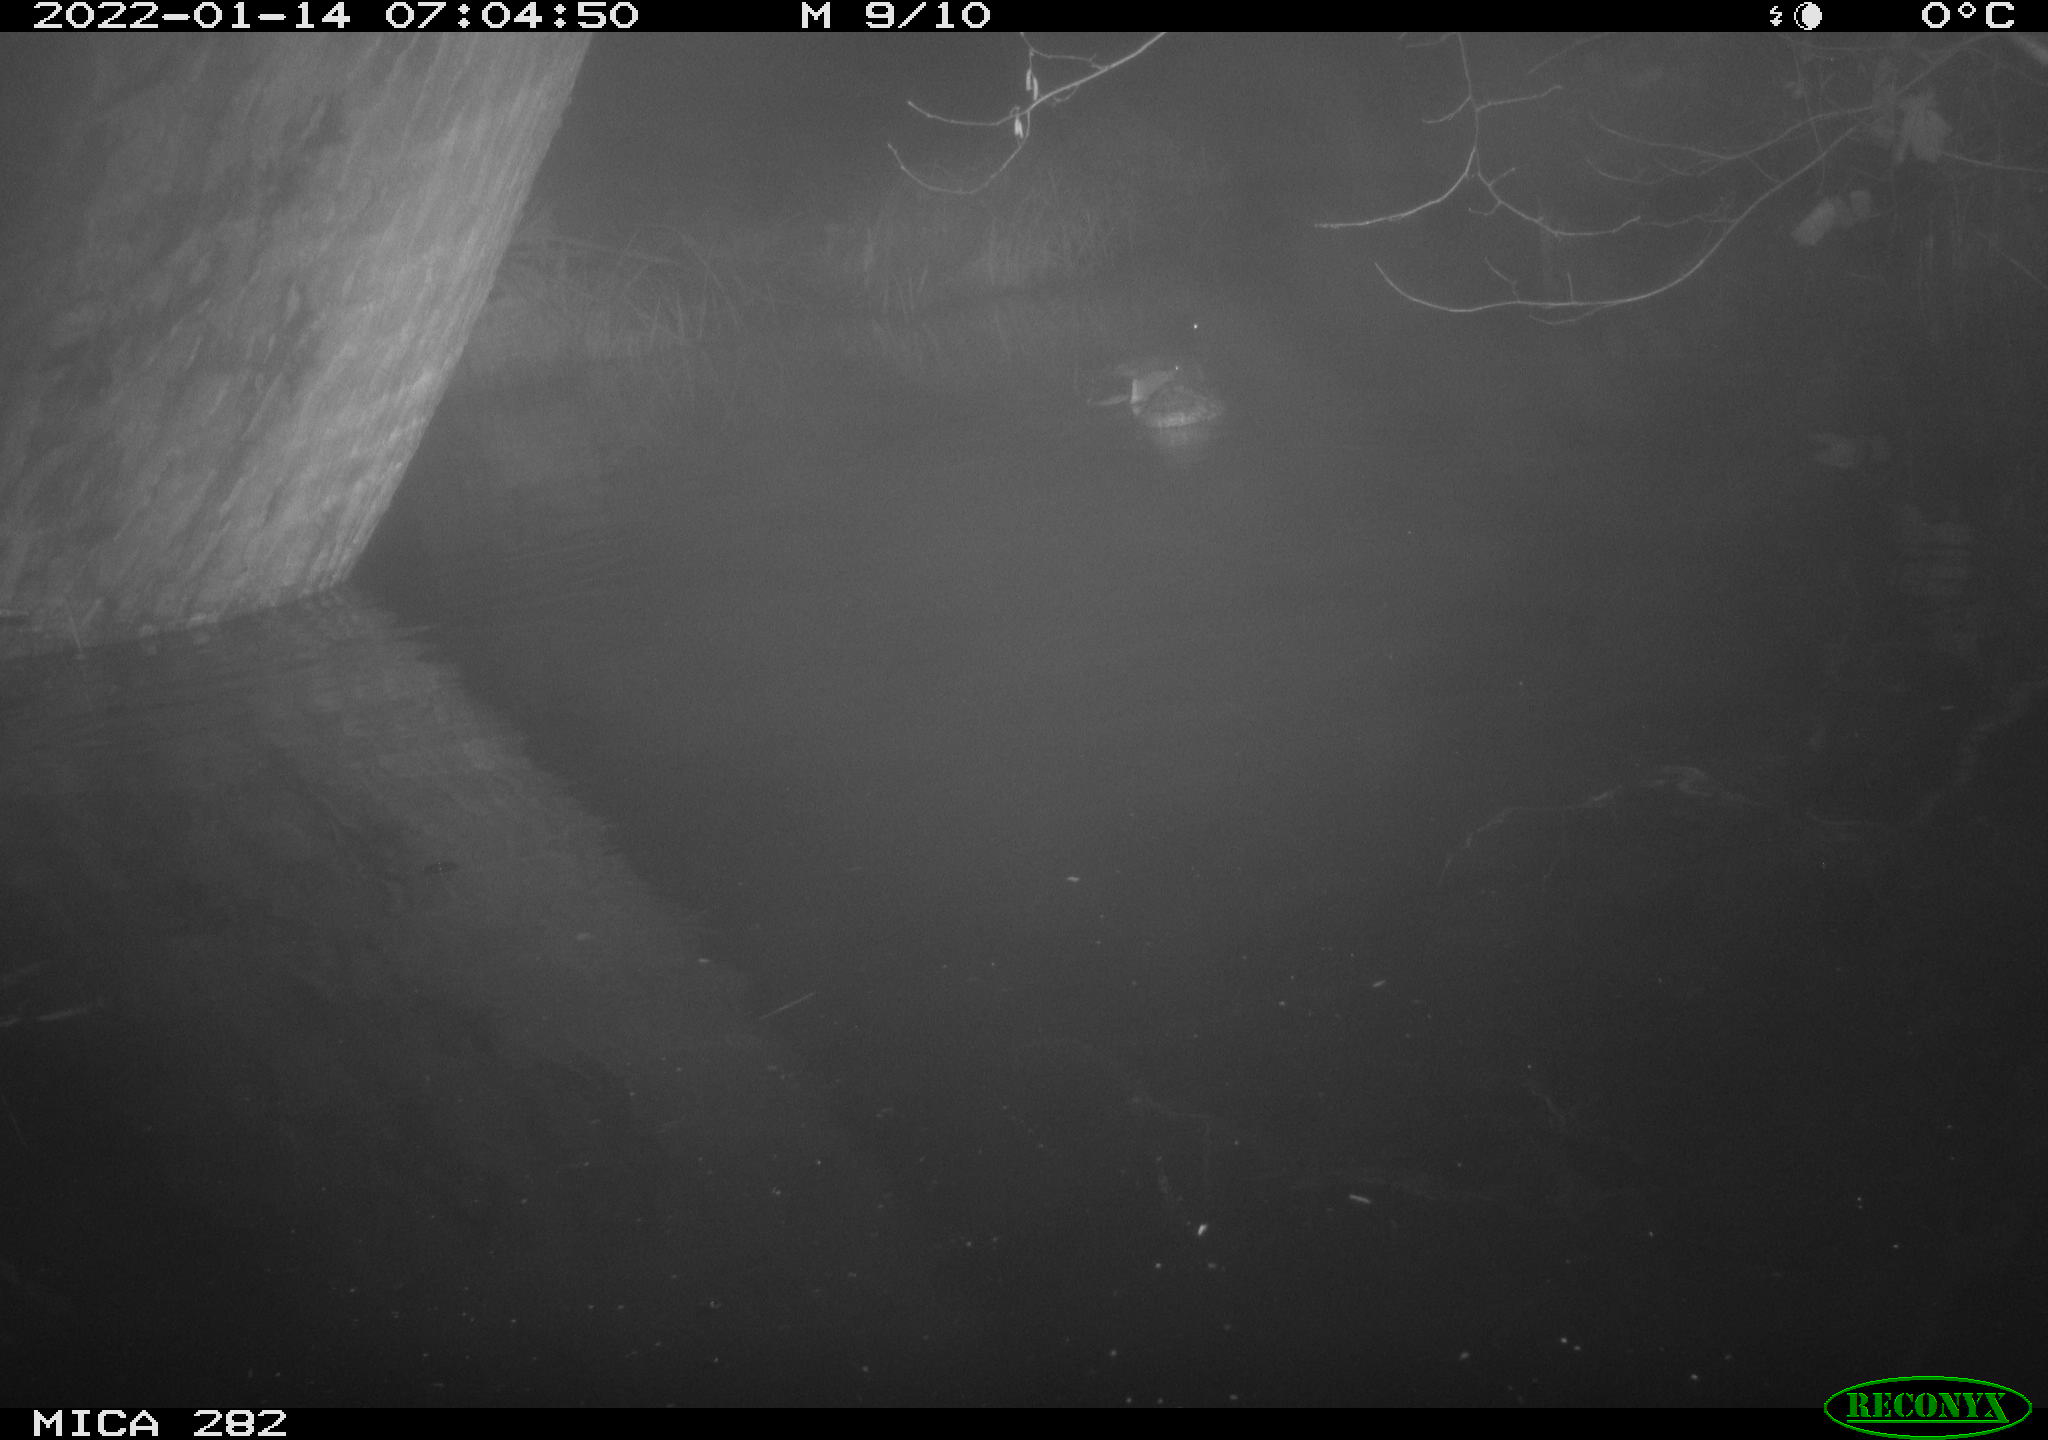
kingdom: Animalia
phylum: Chordata
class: Aves
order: Anseriformes
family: Anatidae
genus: Anas
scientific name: Anas platyrhynchos
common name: Mallard
